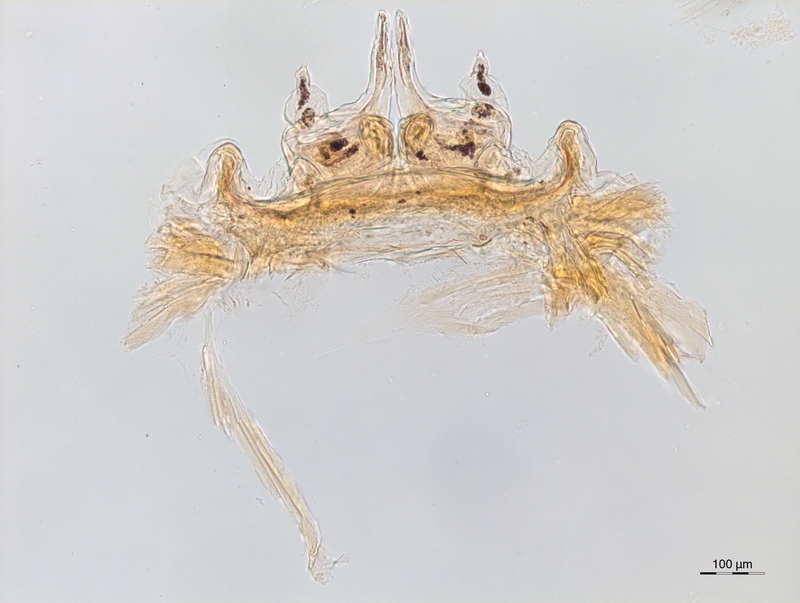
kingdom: Animalia
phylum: Arthropoda
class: Diplopoda
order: Chordeumatida
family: Craspedosomatidae
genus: Brentosoma
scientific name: Brentosoma nivale
